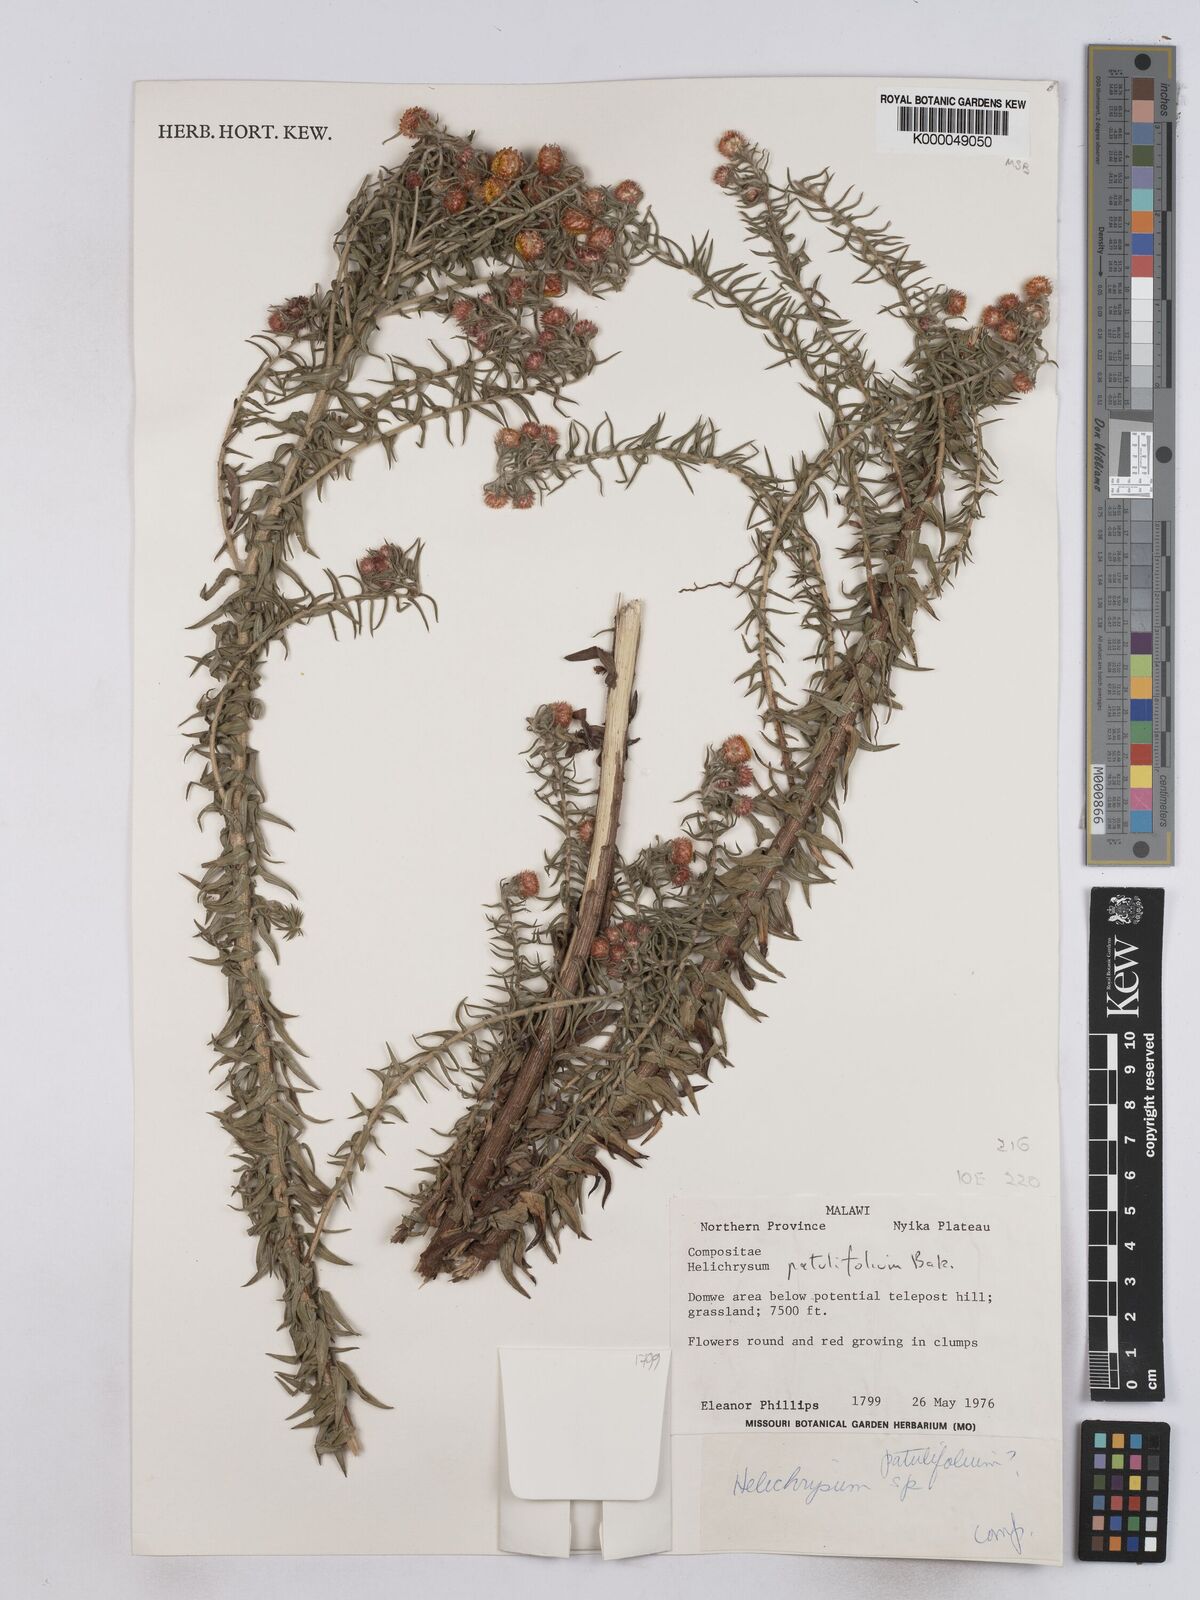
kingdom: Plantae
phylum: Tracheophyta
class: Magnoliopsida
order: Asterales
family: Asteraceae
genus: Helichrysum
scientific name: Helichrysum patulifolium
